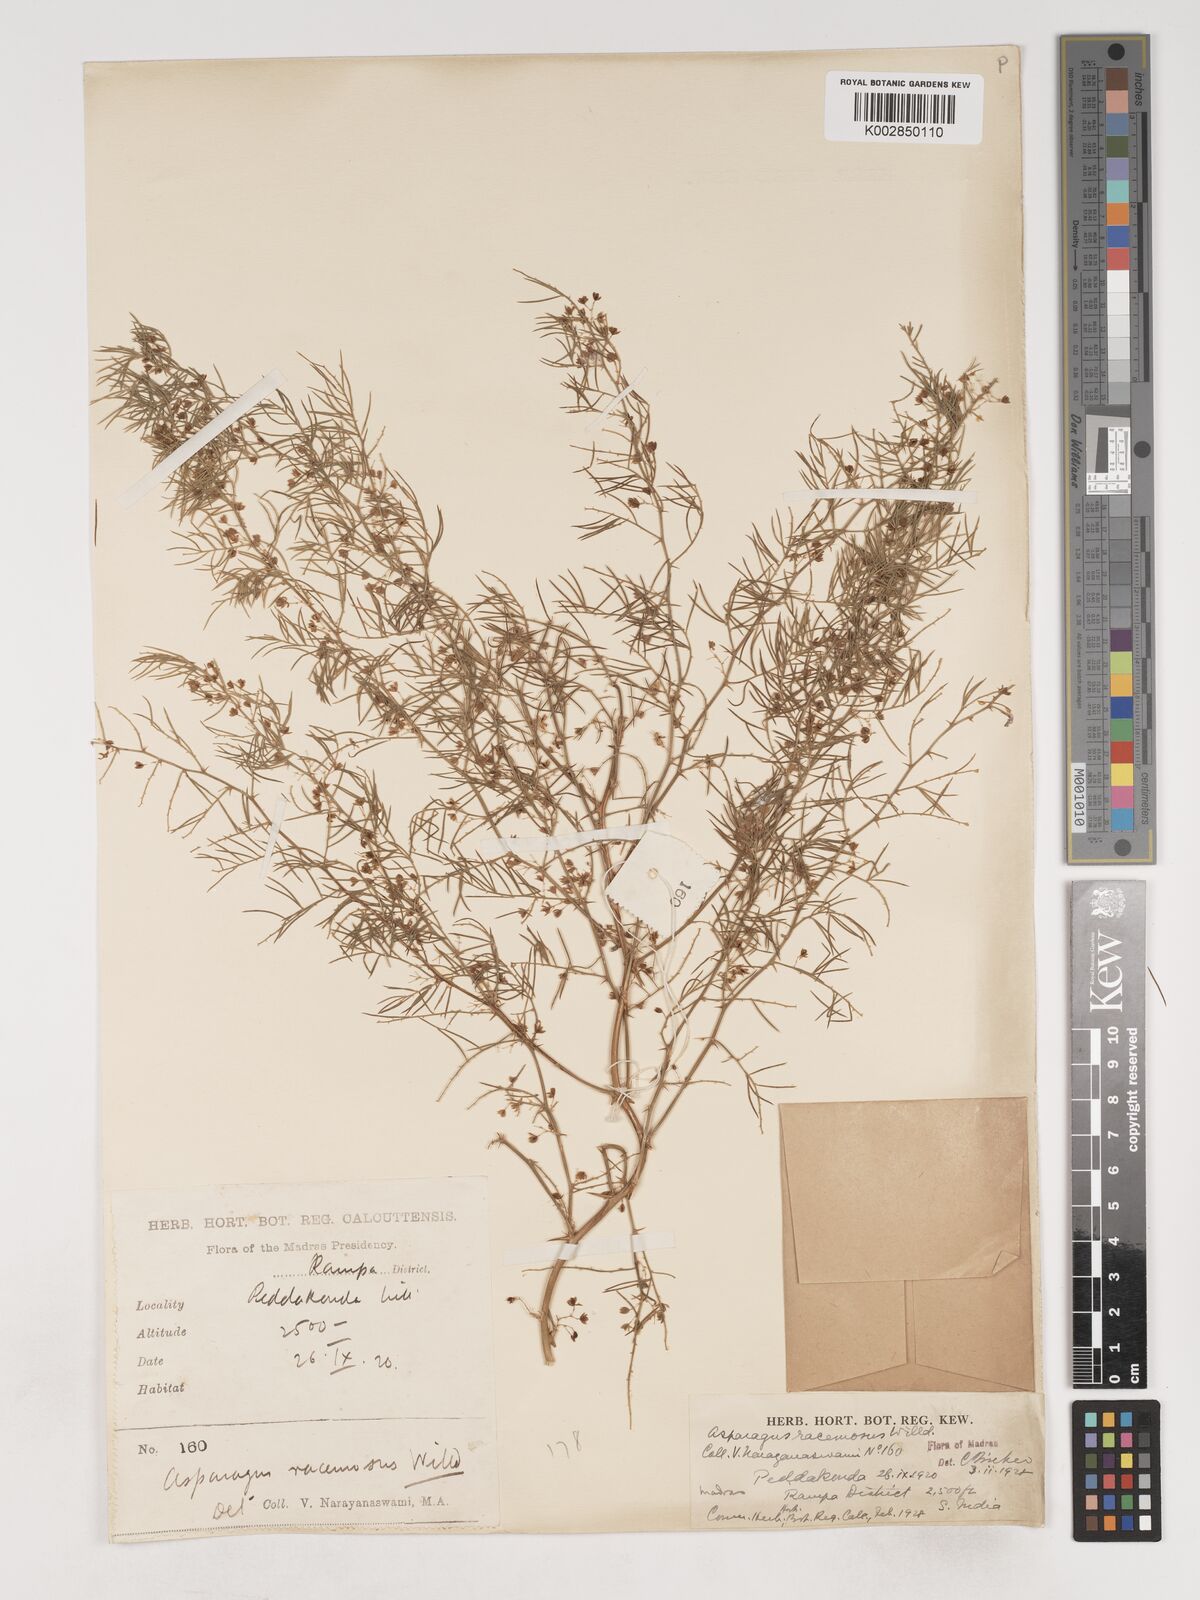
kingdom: Plantae
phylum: Tracheophyta
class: Liliopsida
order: Asparagales
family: Asparagaceae
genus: Asparagus
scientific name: Asparagus racemosus
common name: Asparagus-fern
